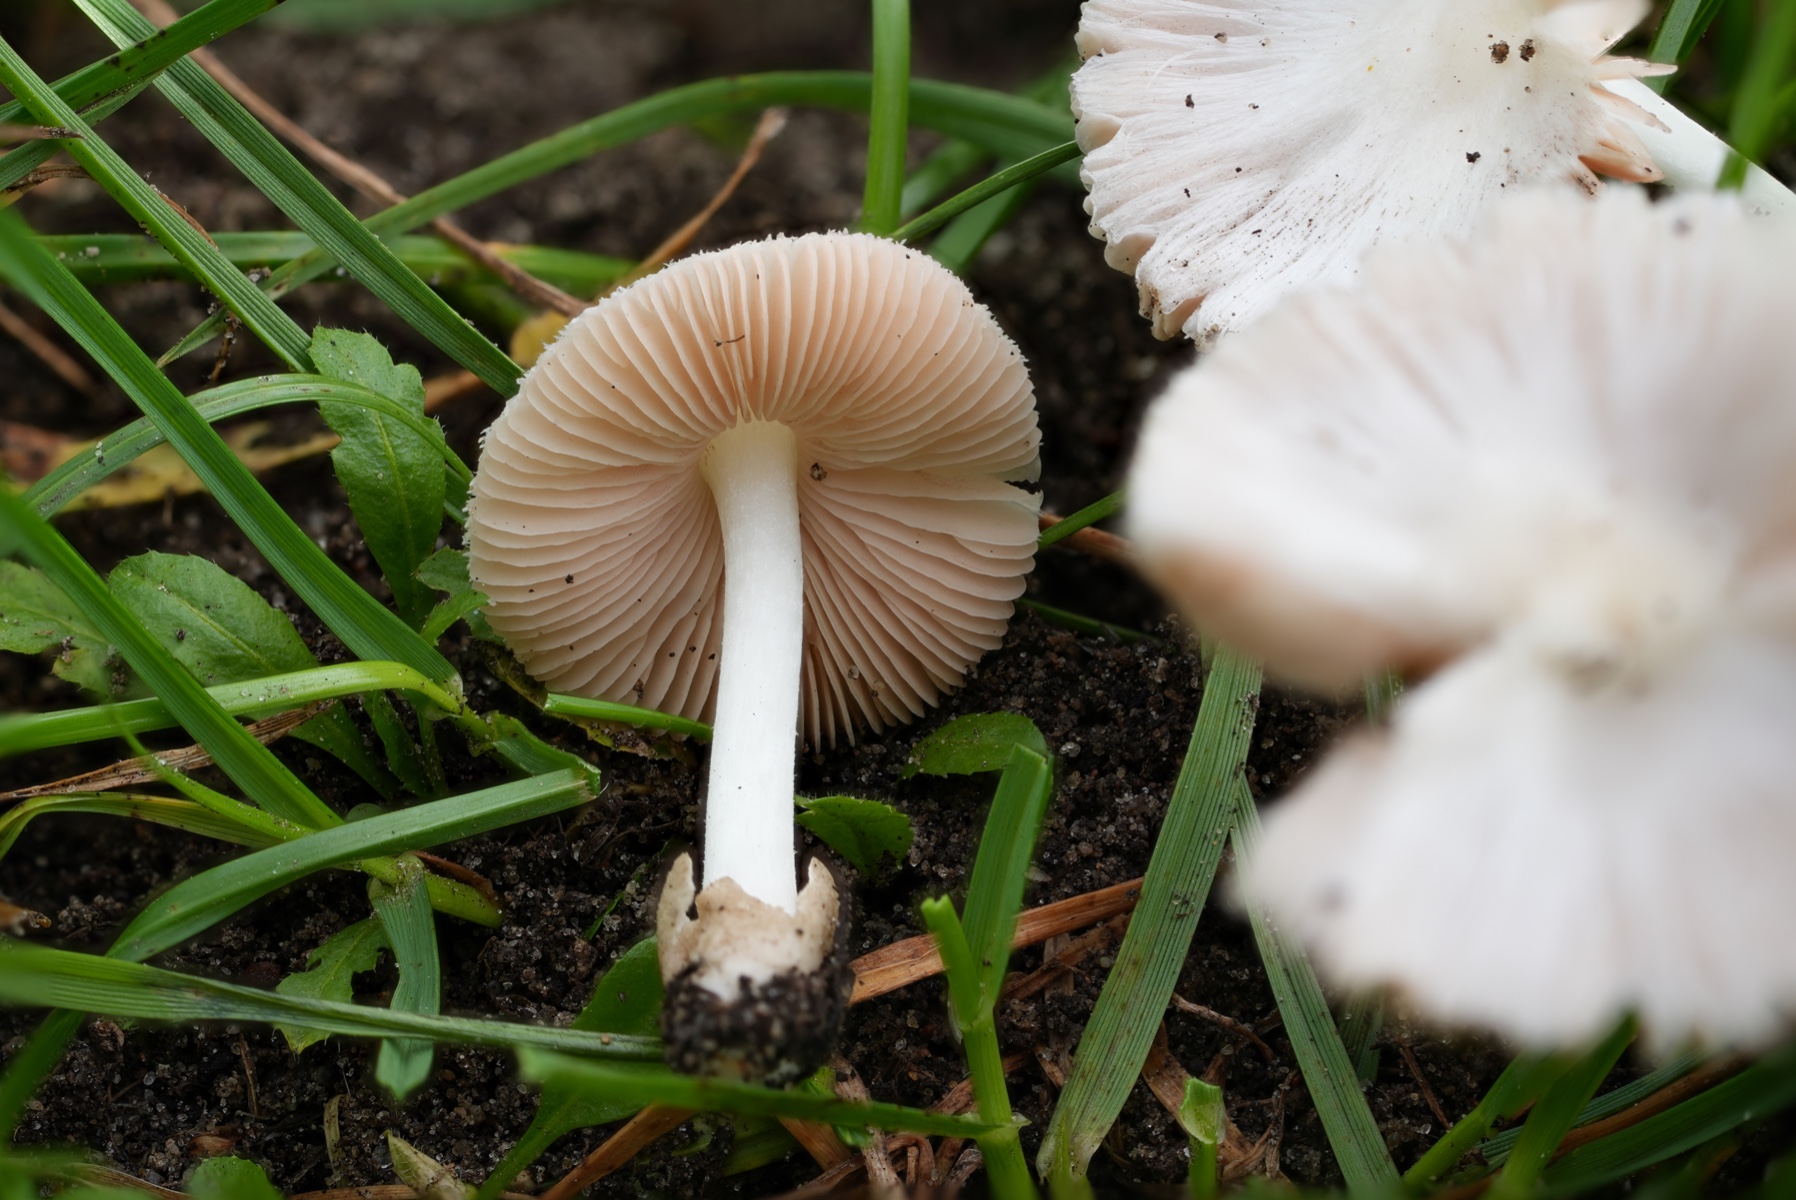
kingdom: Fungi
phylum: Basidiomycota
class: Agaricomycetes
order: Agaricales
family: Pluteaceae
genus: Volvariella
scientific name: Volvariella
